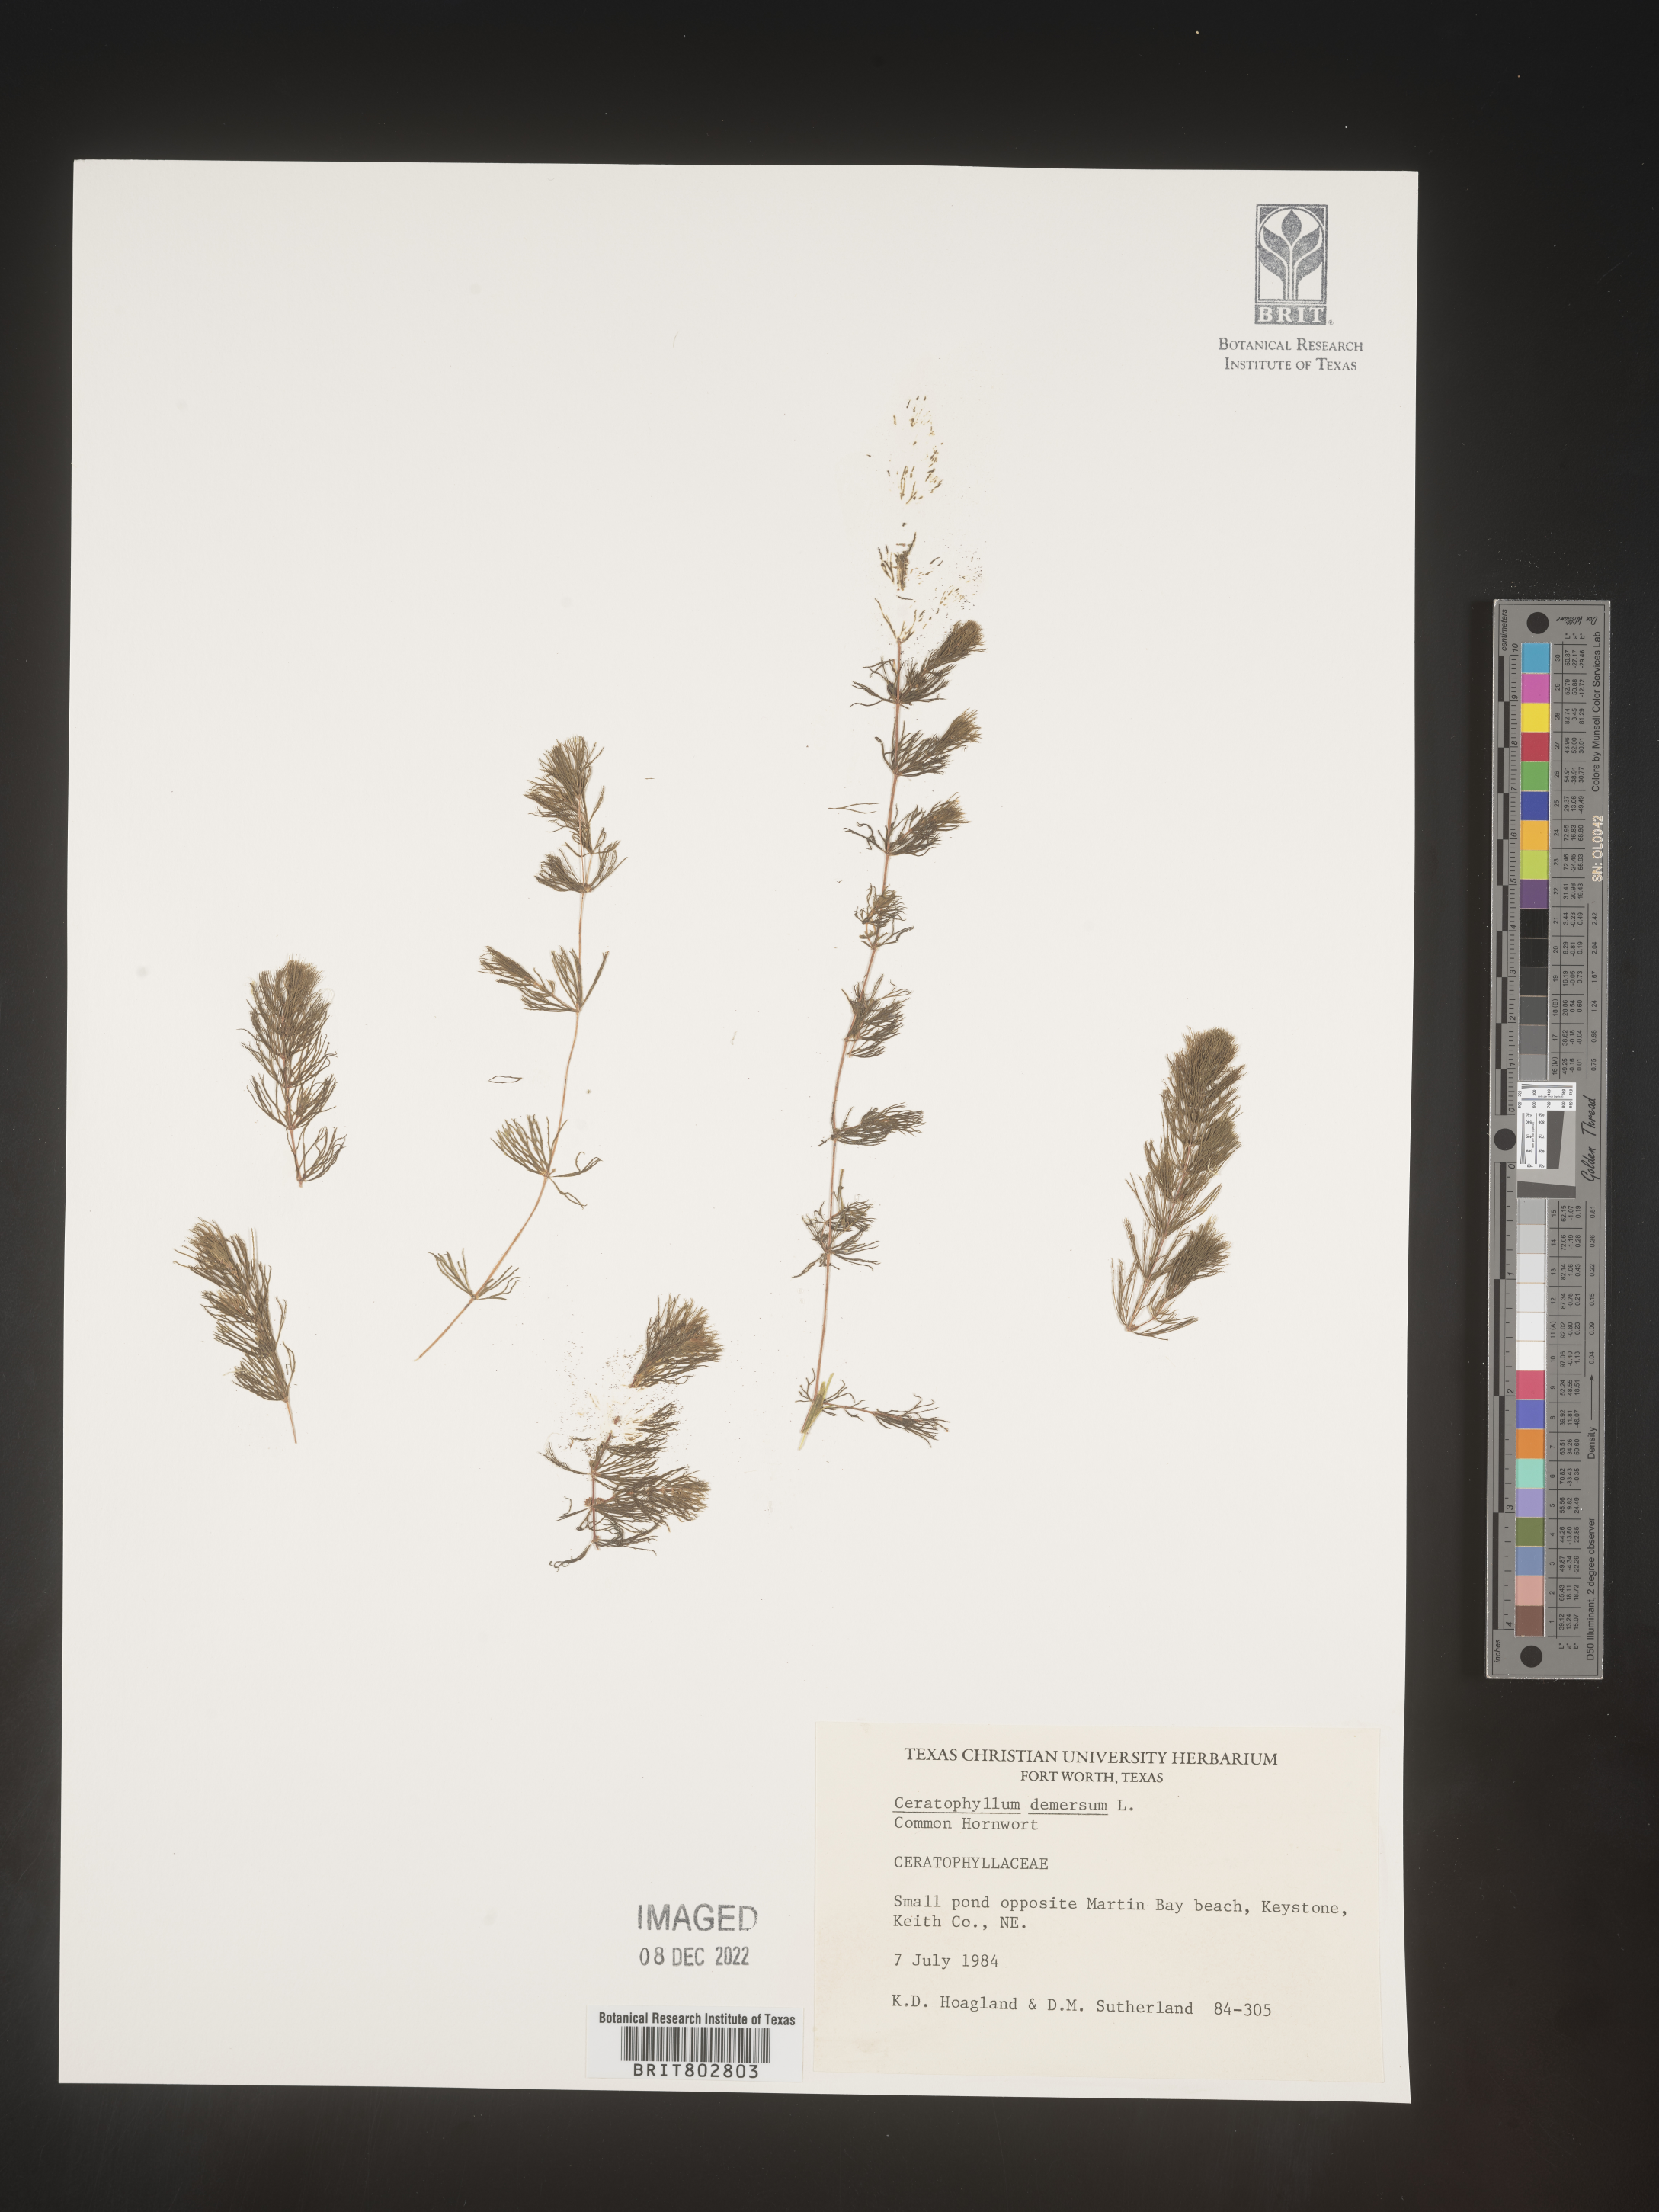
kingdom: Plantae
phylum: Tracheophyta
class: Magnoliopsida
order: Ceratophyllales
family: Ceratophyllaceae
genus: Ceratophyllum
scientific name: Ceratophyllum demersum
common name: Rigid hornwort
